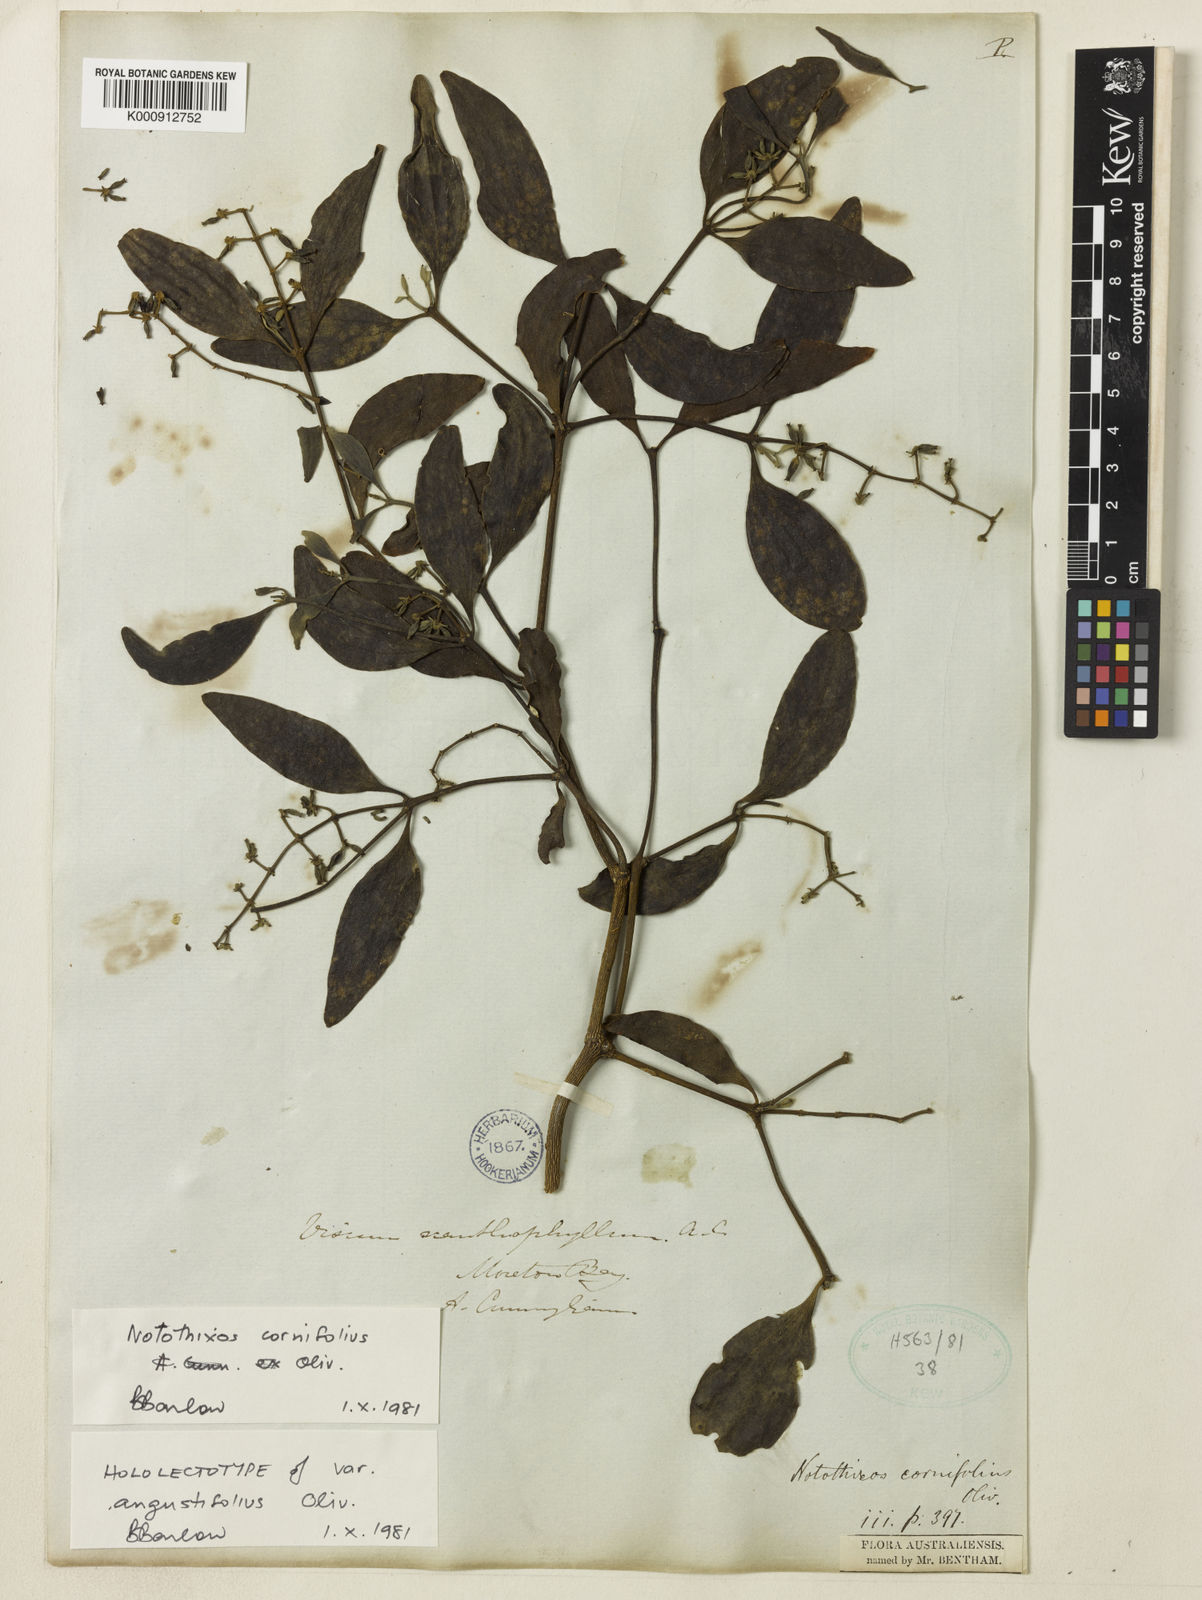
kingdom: Plantae
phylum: Tracheophyta
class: Magnoliopsida
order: Santalales
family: Viscaceae
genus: Notothixos
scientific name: Notothixos cornifolius
